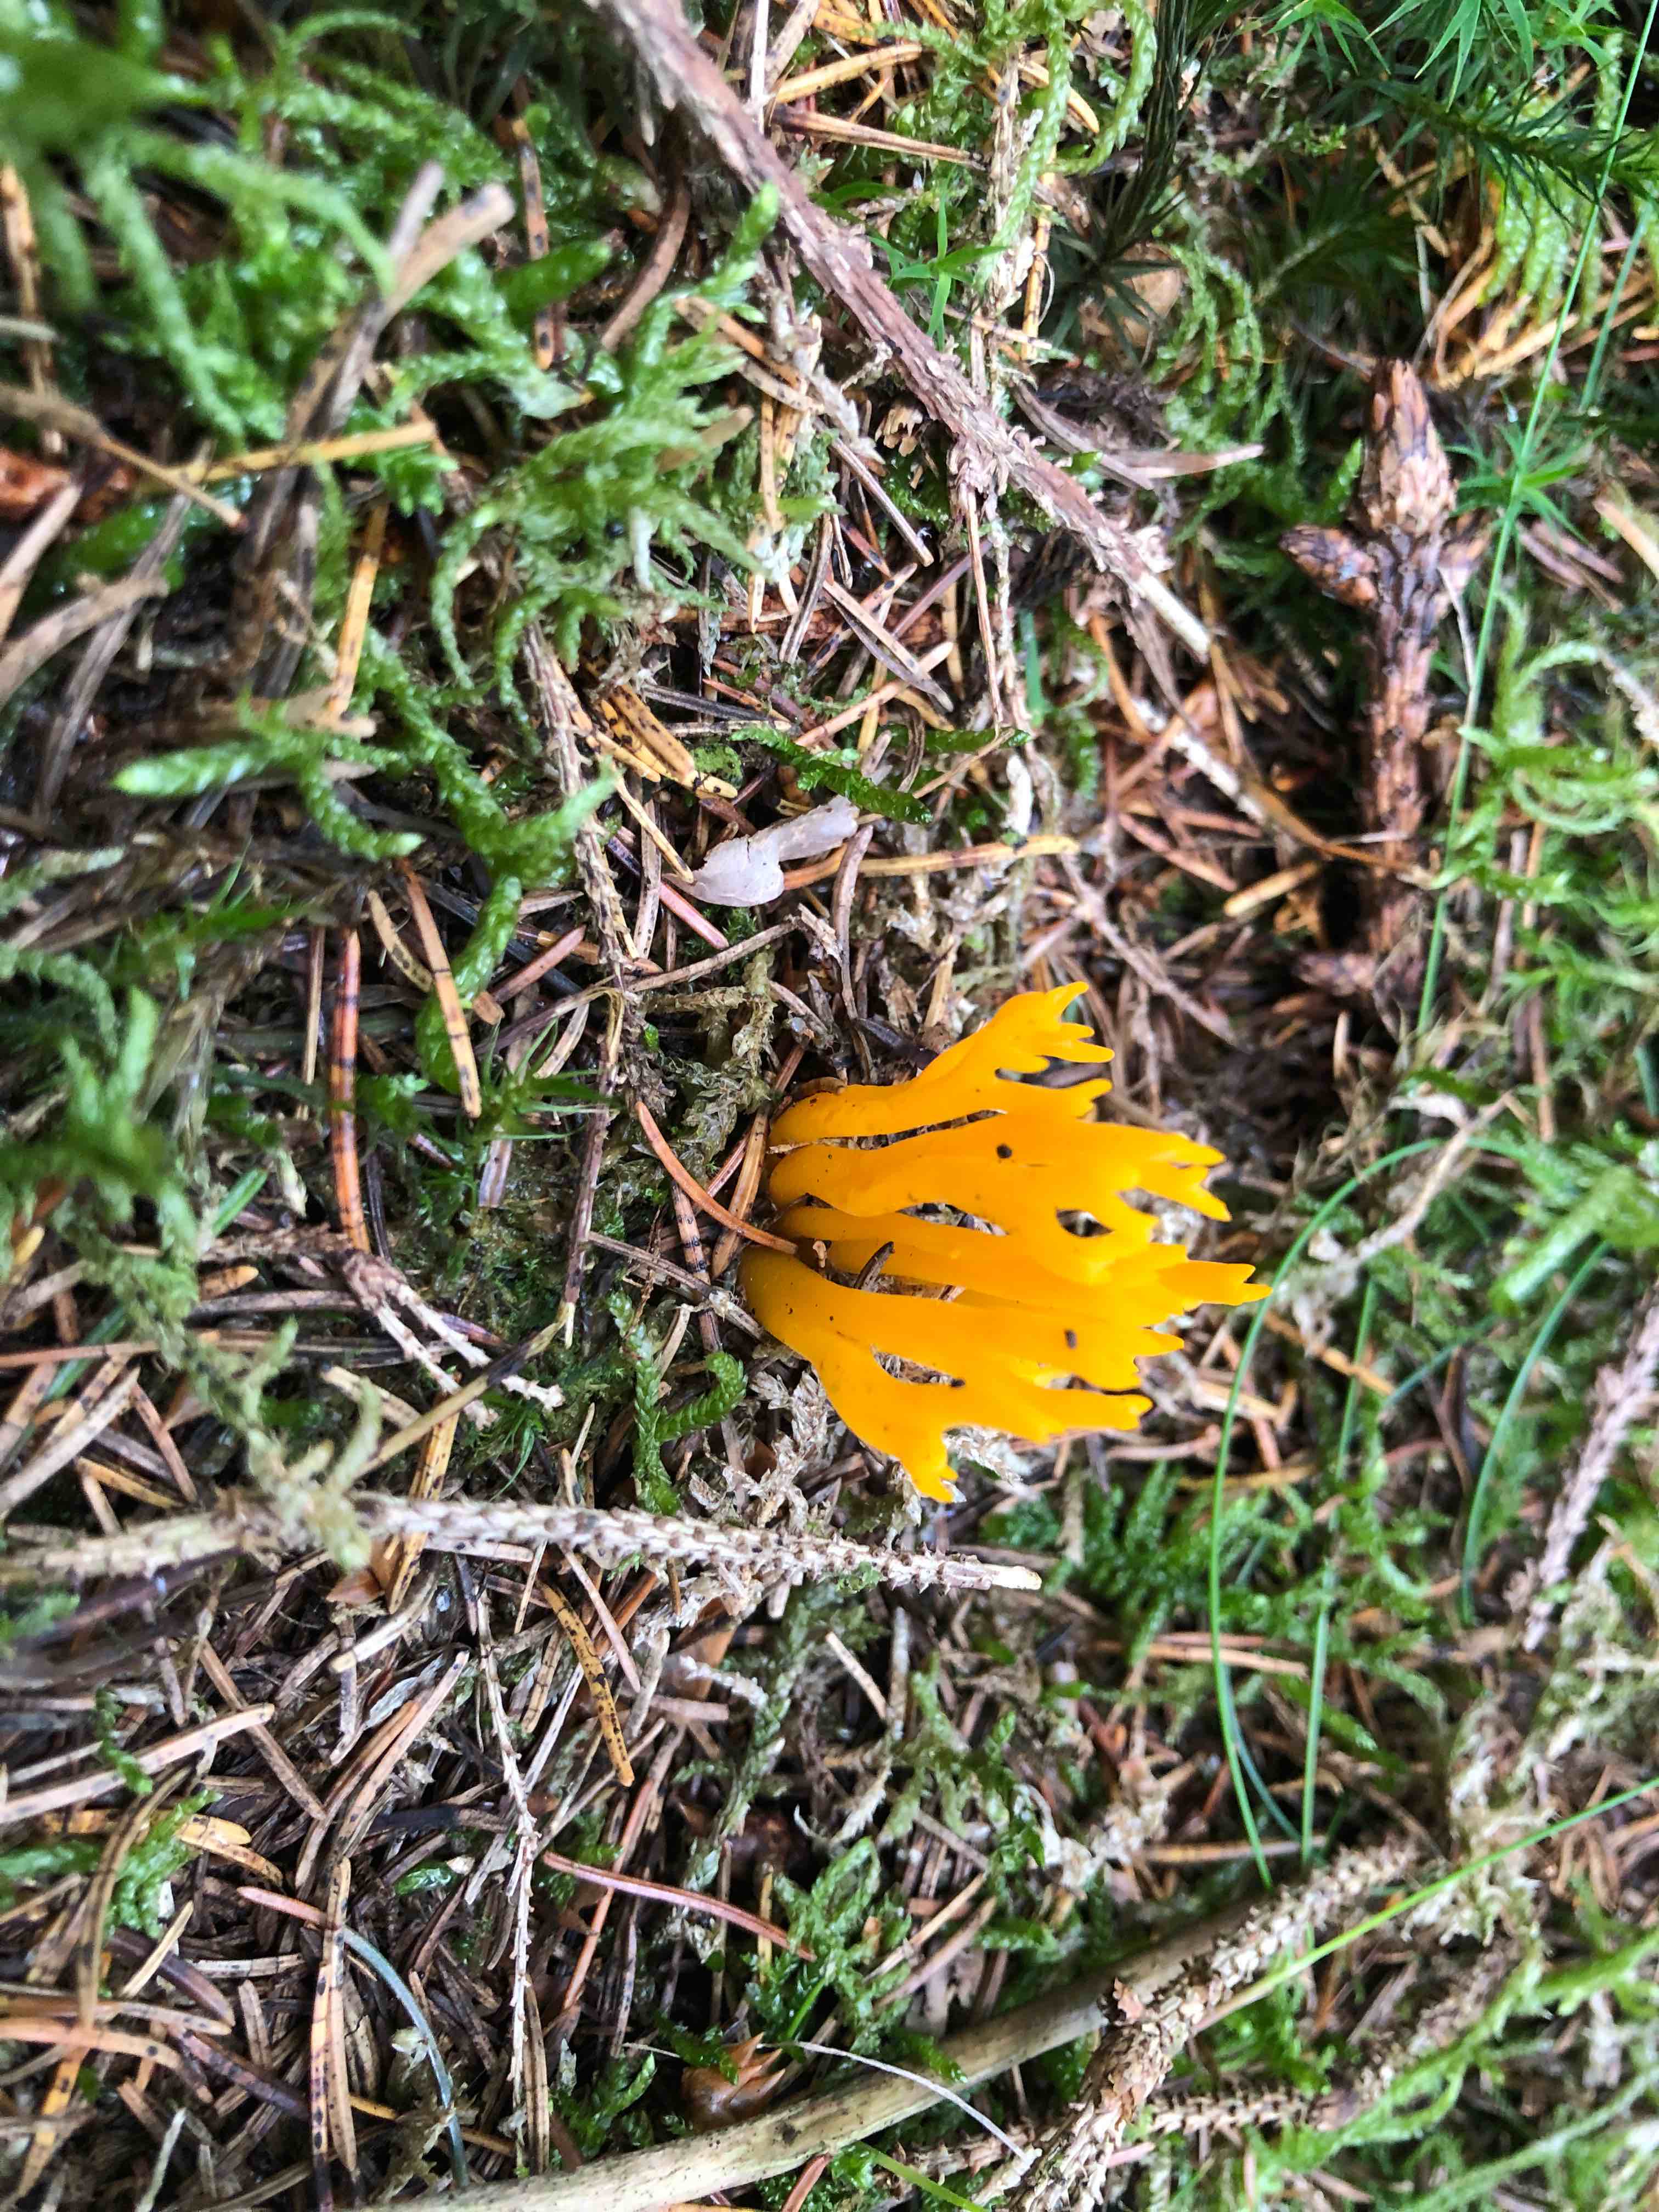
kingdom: Fungi
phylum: Basidiomycota
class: Dacrymycetes
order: Dacrymycetales
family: Dacrymycetaceae
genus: Calocera
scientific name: Calocera viscosa
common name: almindelig guldgaffel
